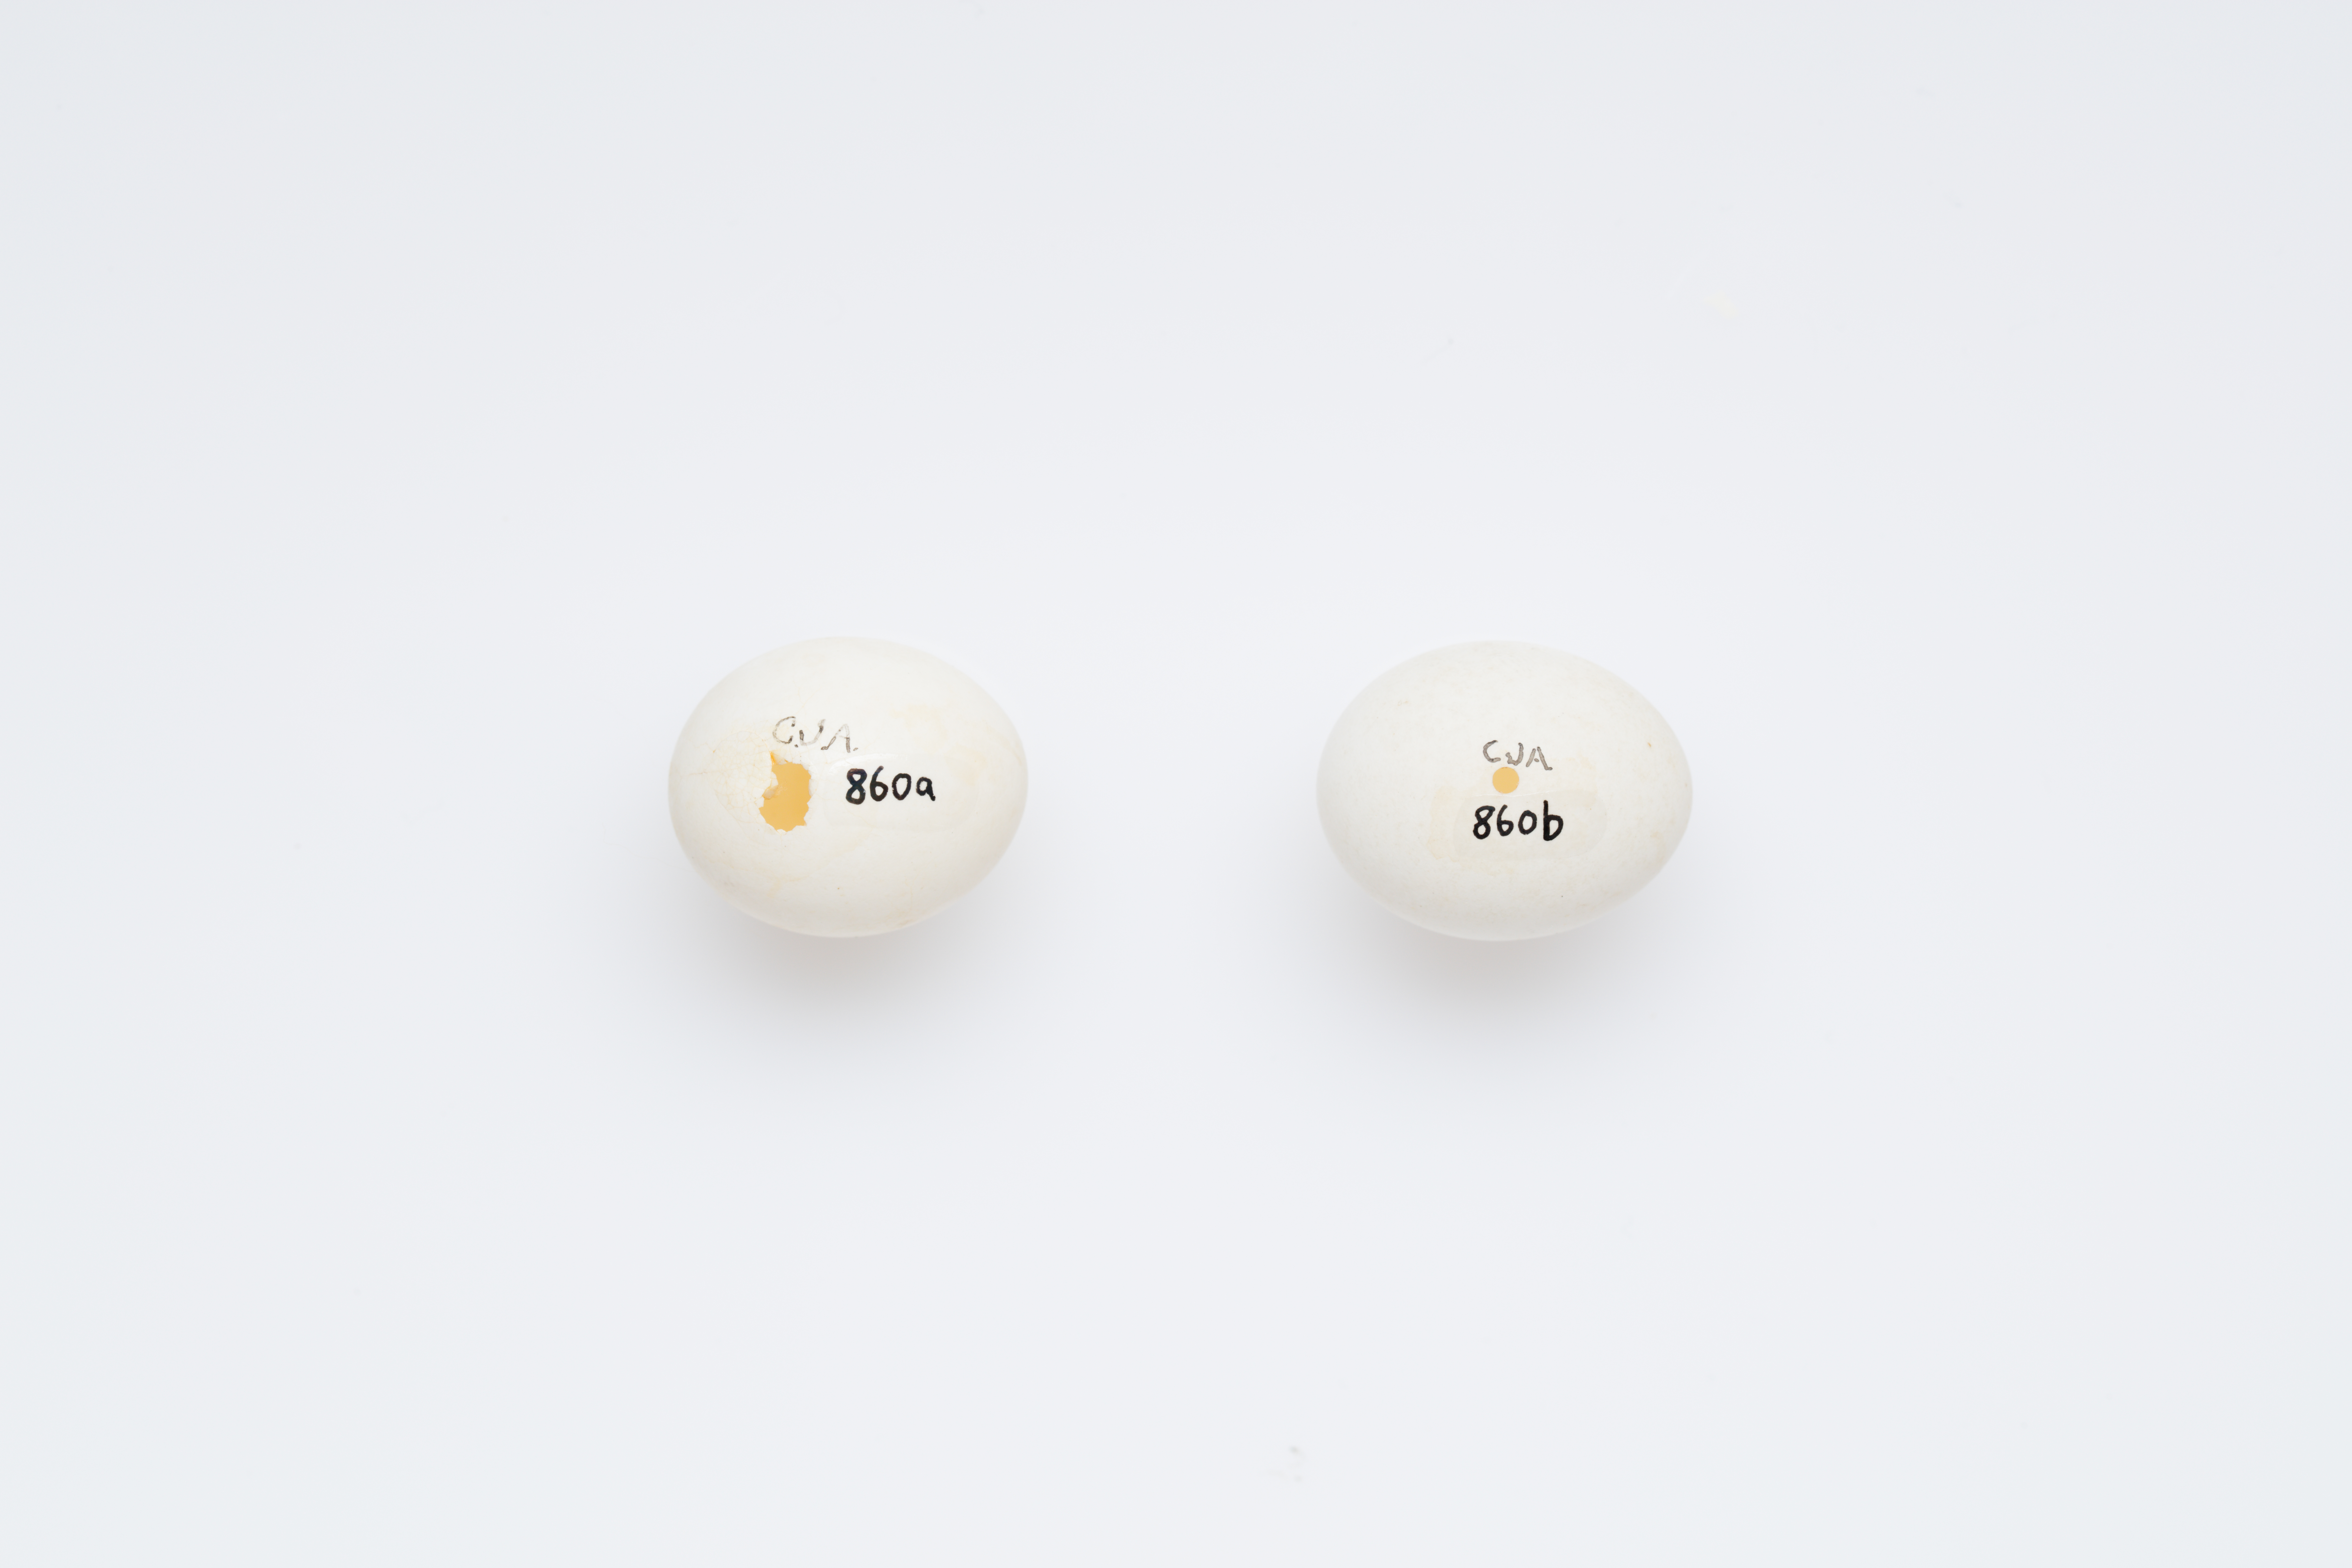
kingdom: Animalia
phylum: Chordata
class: Aves
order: Psittaciformes
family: Psittacidae
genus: Cyanoramphus
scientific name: Cyanoramphus auriceps
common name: Yellow-crowned parakeet
